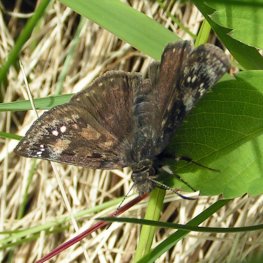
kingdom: Animalia
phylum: Arthropoda
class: Insecta
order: Lepidoptera
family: Hesperiidae
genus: Gesta
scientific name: Gesta
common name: Juvenal's Duskywing
